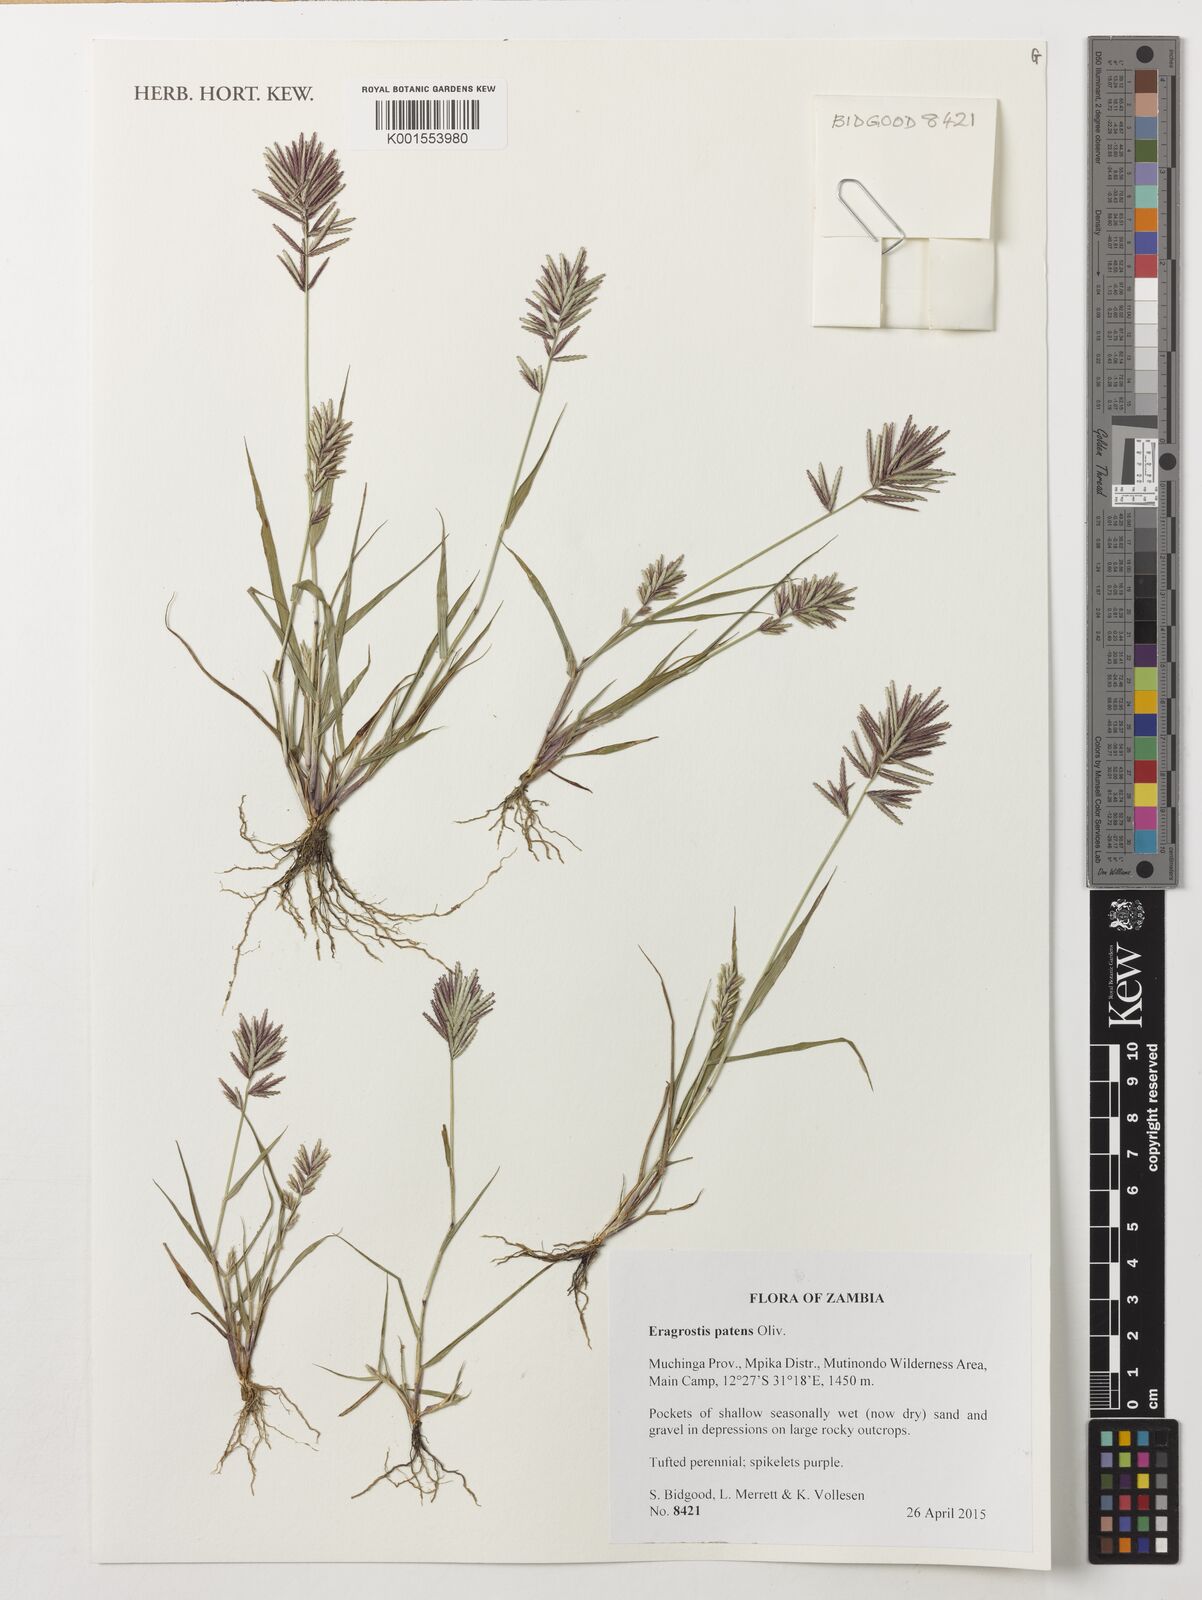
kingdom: Plantae
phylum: Tracheophyta
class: Liliopsida
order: Poales
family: Poaceae
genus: Eragrostis
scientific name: Eragrostis patens
